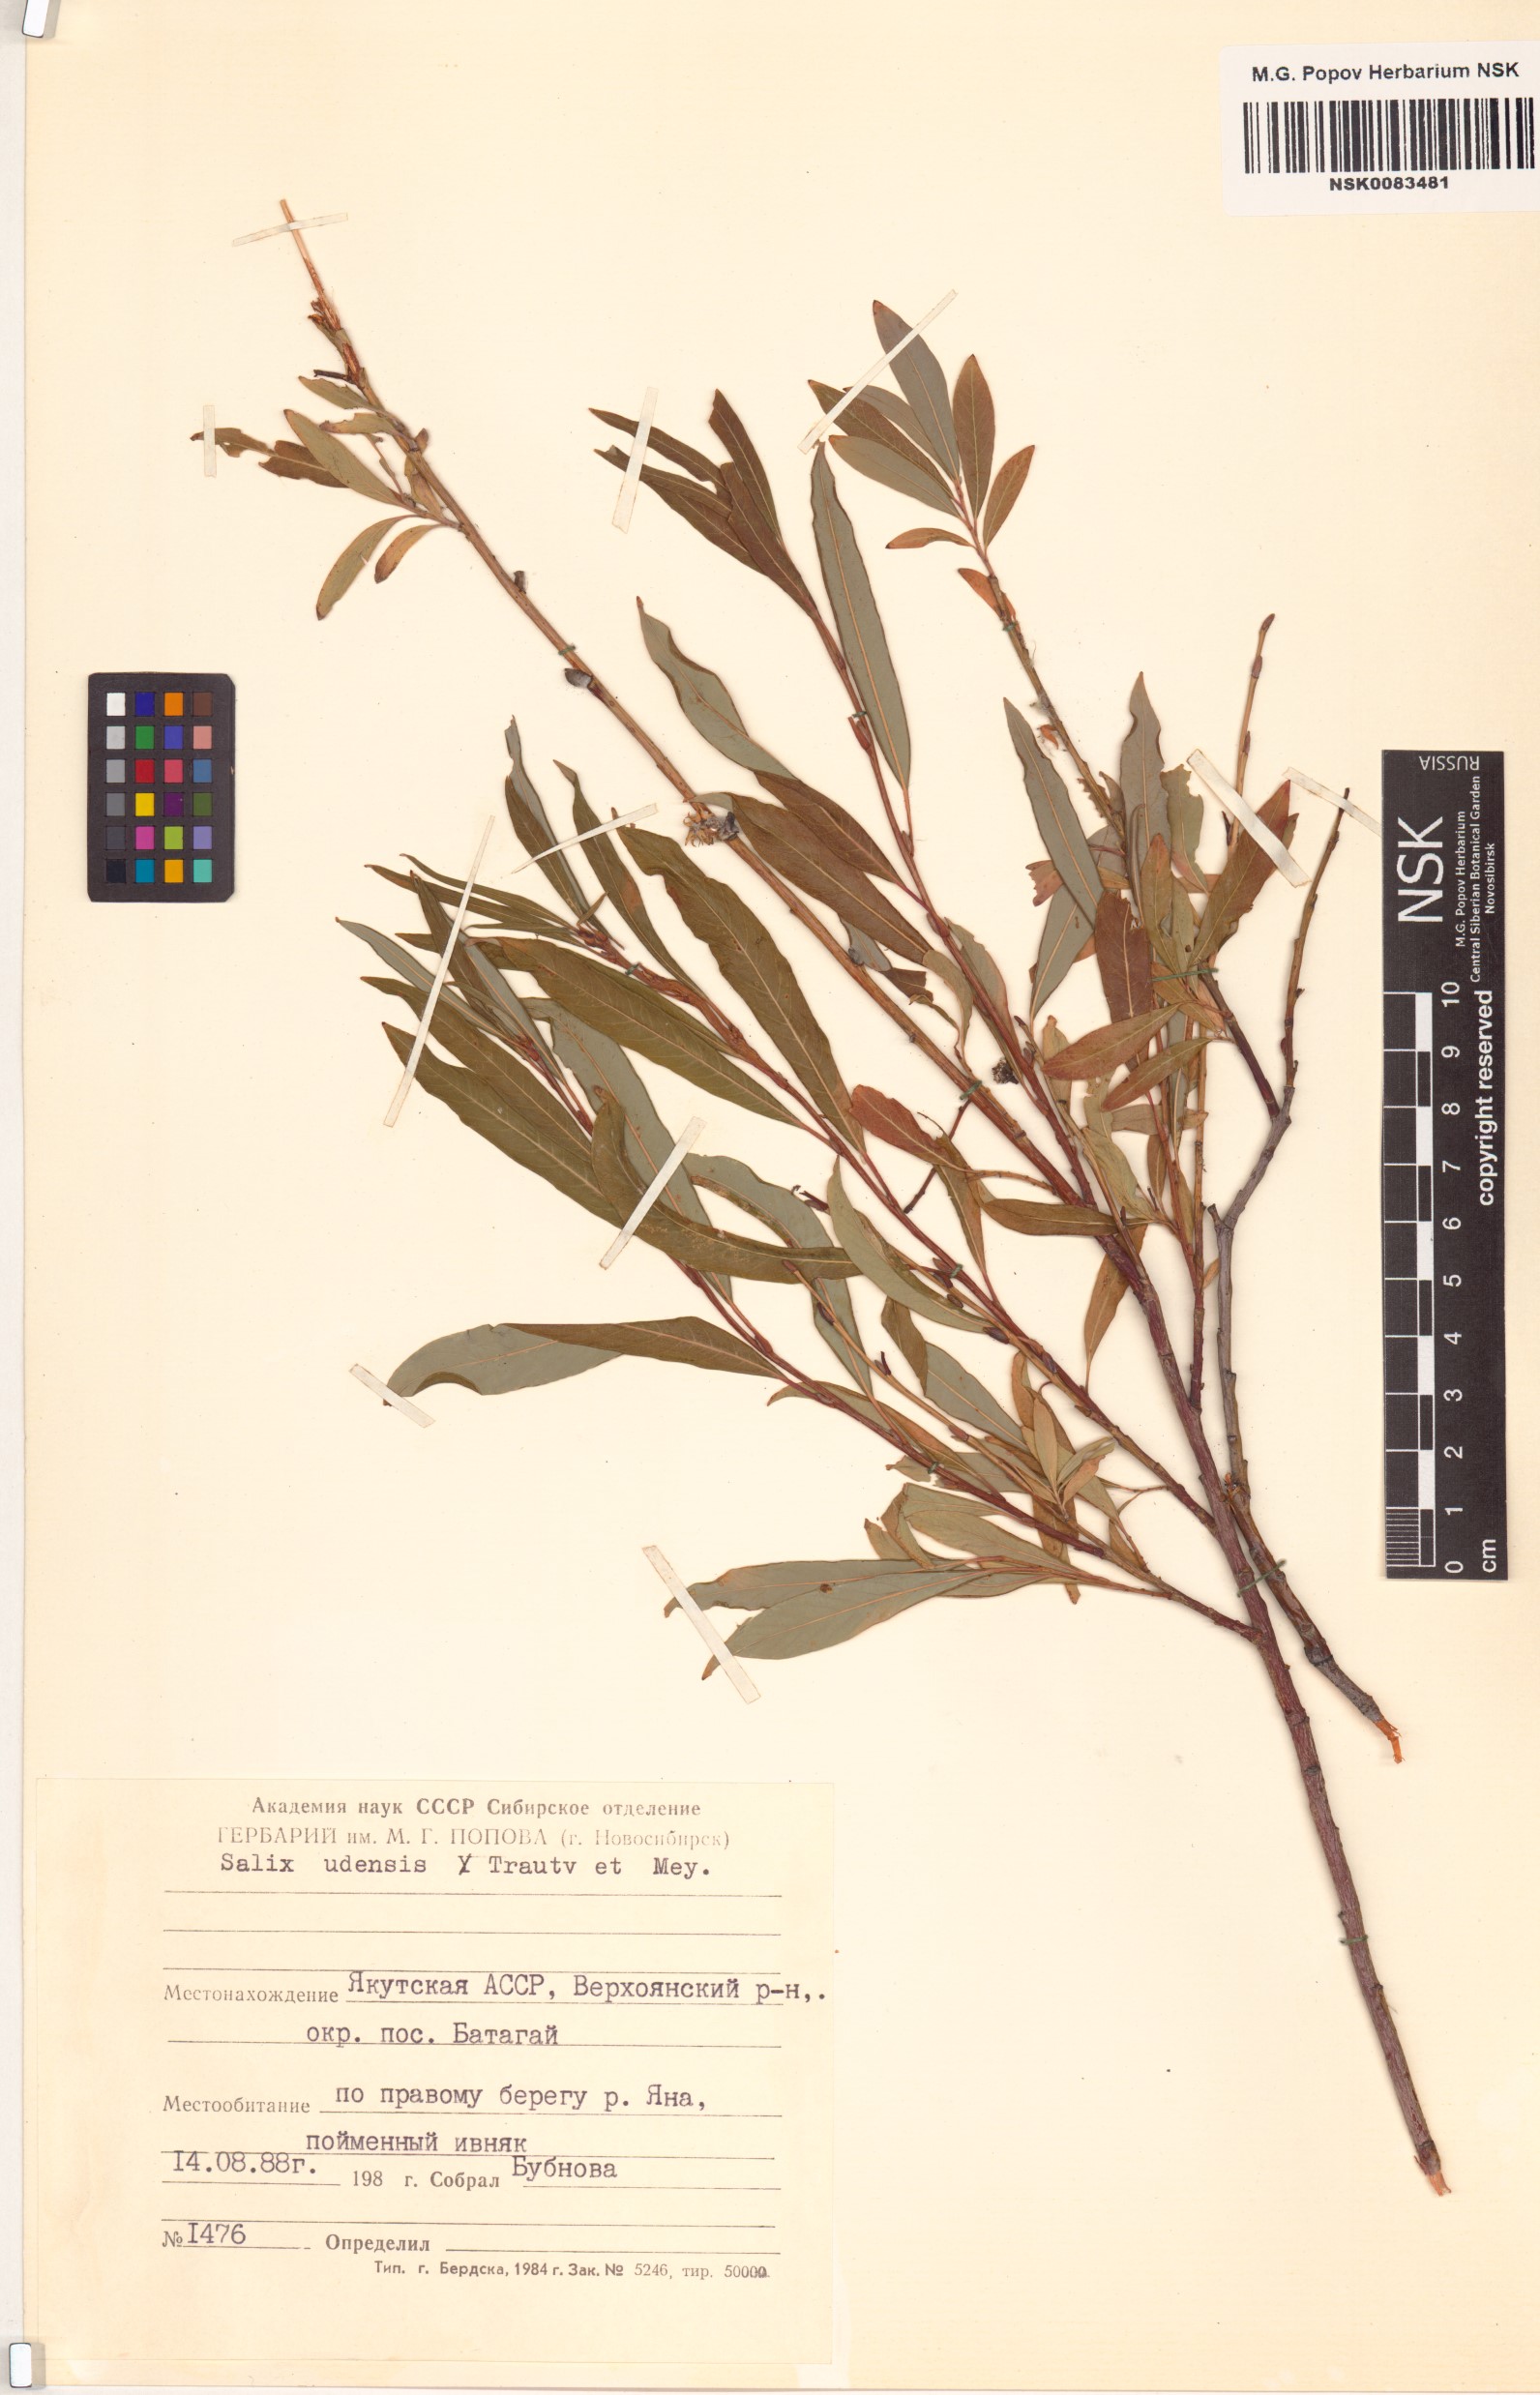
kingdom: Plantae
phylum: Tracheophyta
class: Magnoliopsida
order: Malpighiales
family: Salicaceae
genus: Salix
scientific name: Salix udensis
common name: Sachalin willow
